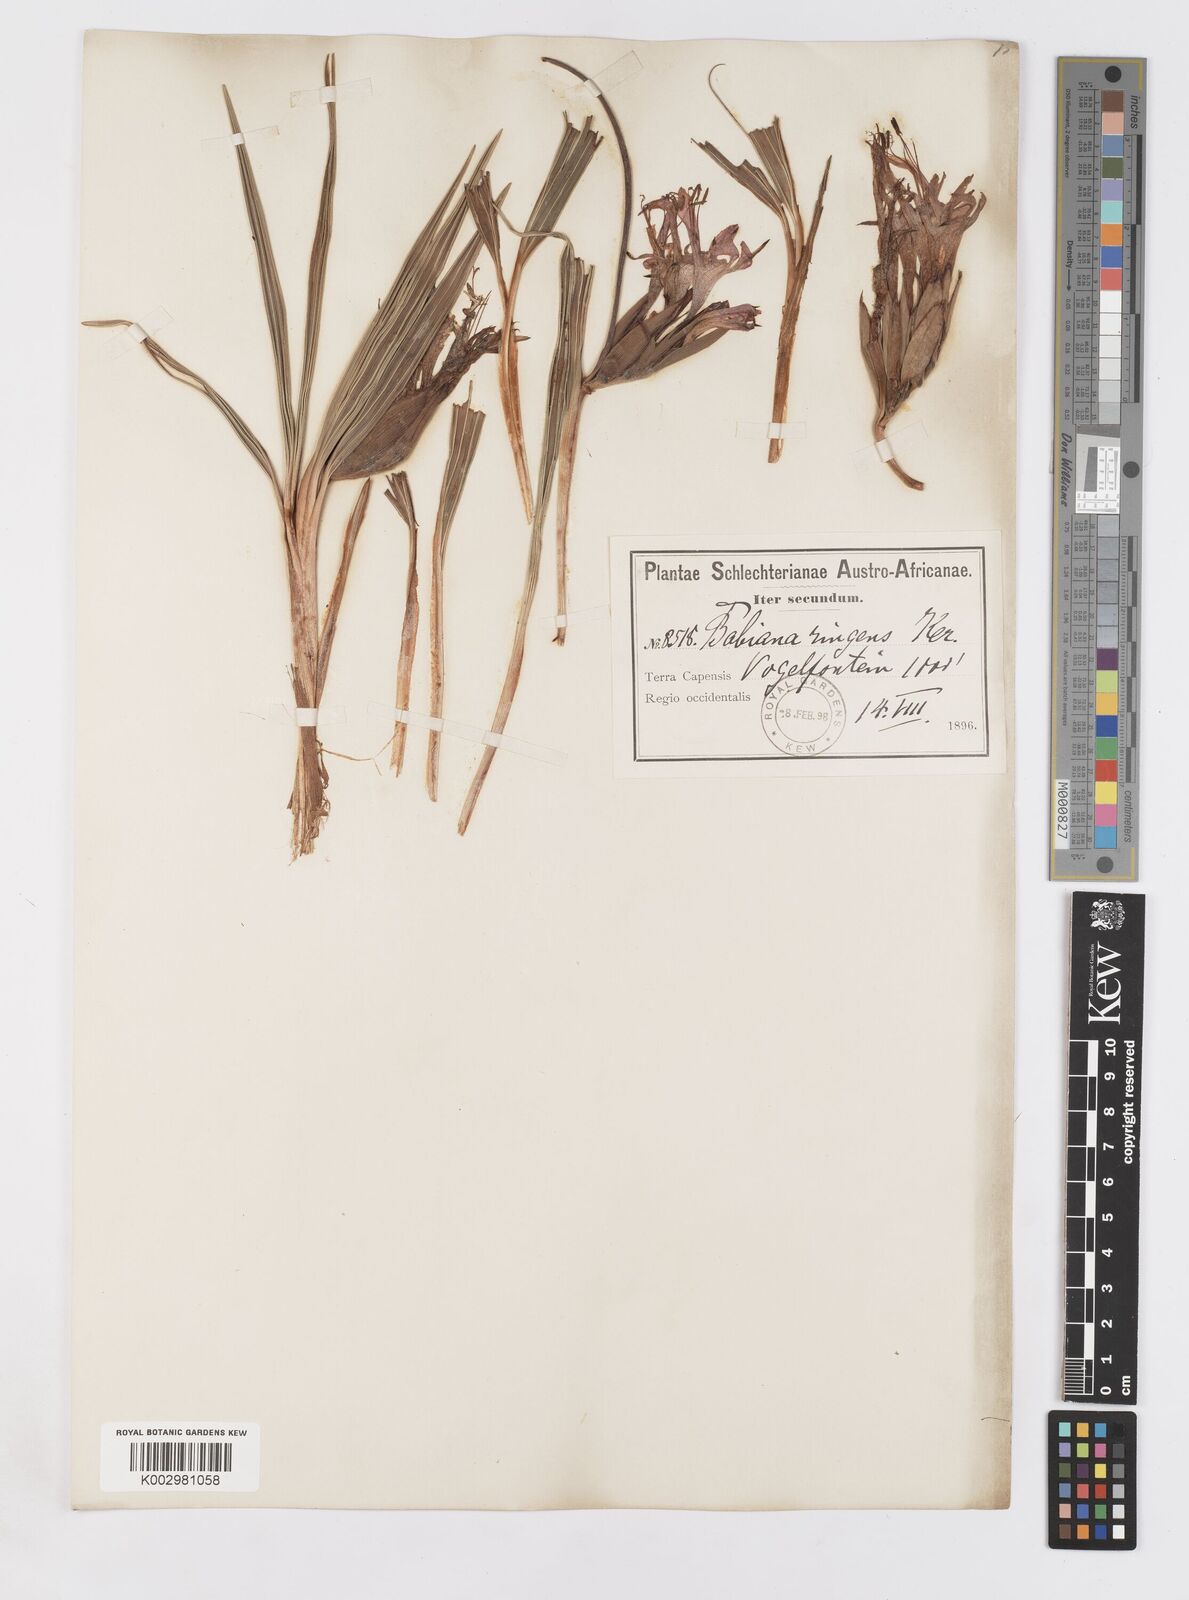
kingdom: Plantae
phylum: Tracheophyta
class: Liliopsida
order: Asparagales
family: Iridaceae
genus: Babiana
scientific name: Babiana ringens
